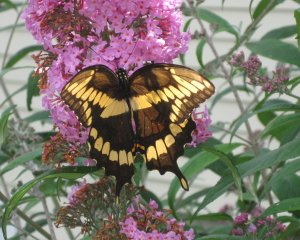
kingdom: Animalia
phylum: Arthropoda
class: Insecta
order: Lepidoptera
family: Papilionidae
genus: Papilio
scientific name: Papilio cresphontes
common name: Eastern Giant Swallowtail
